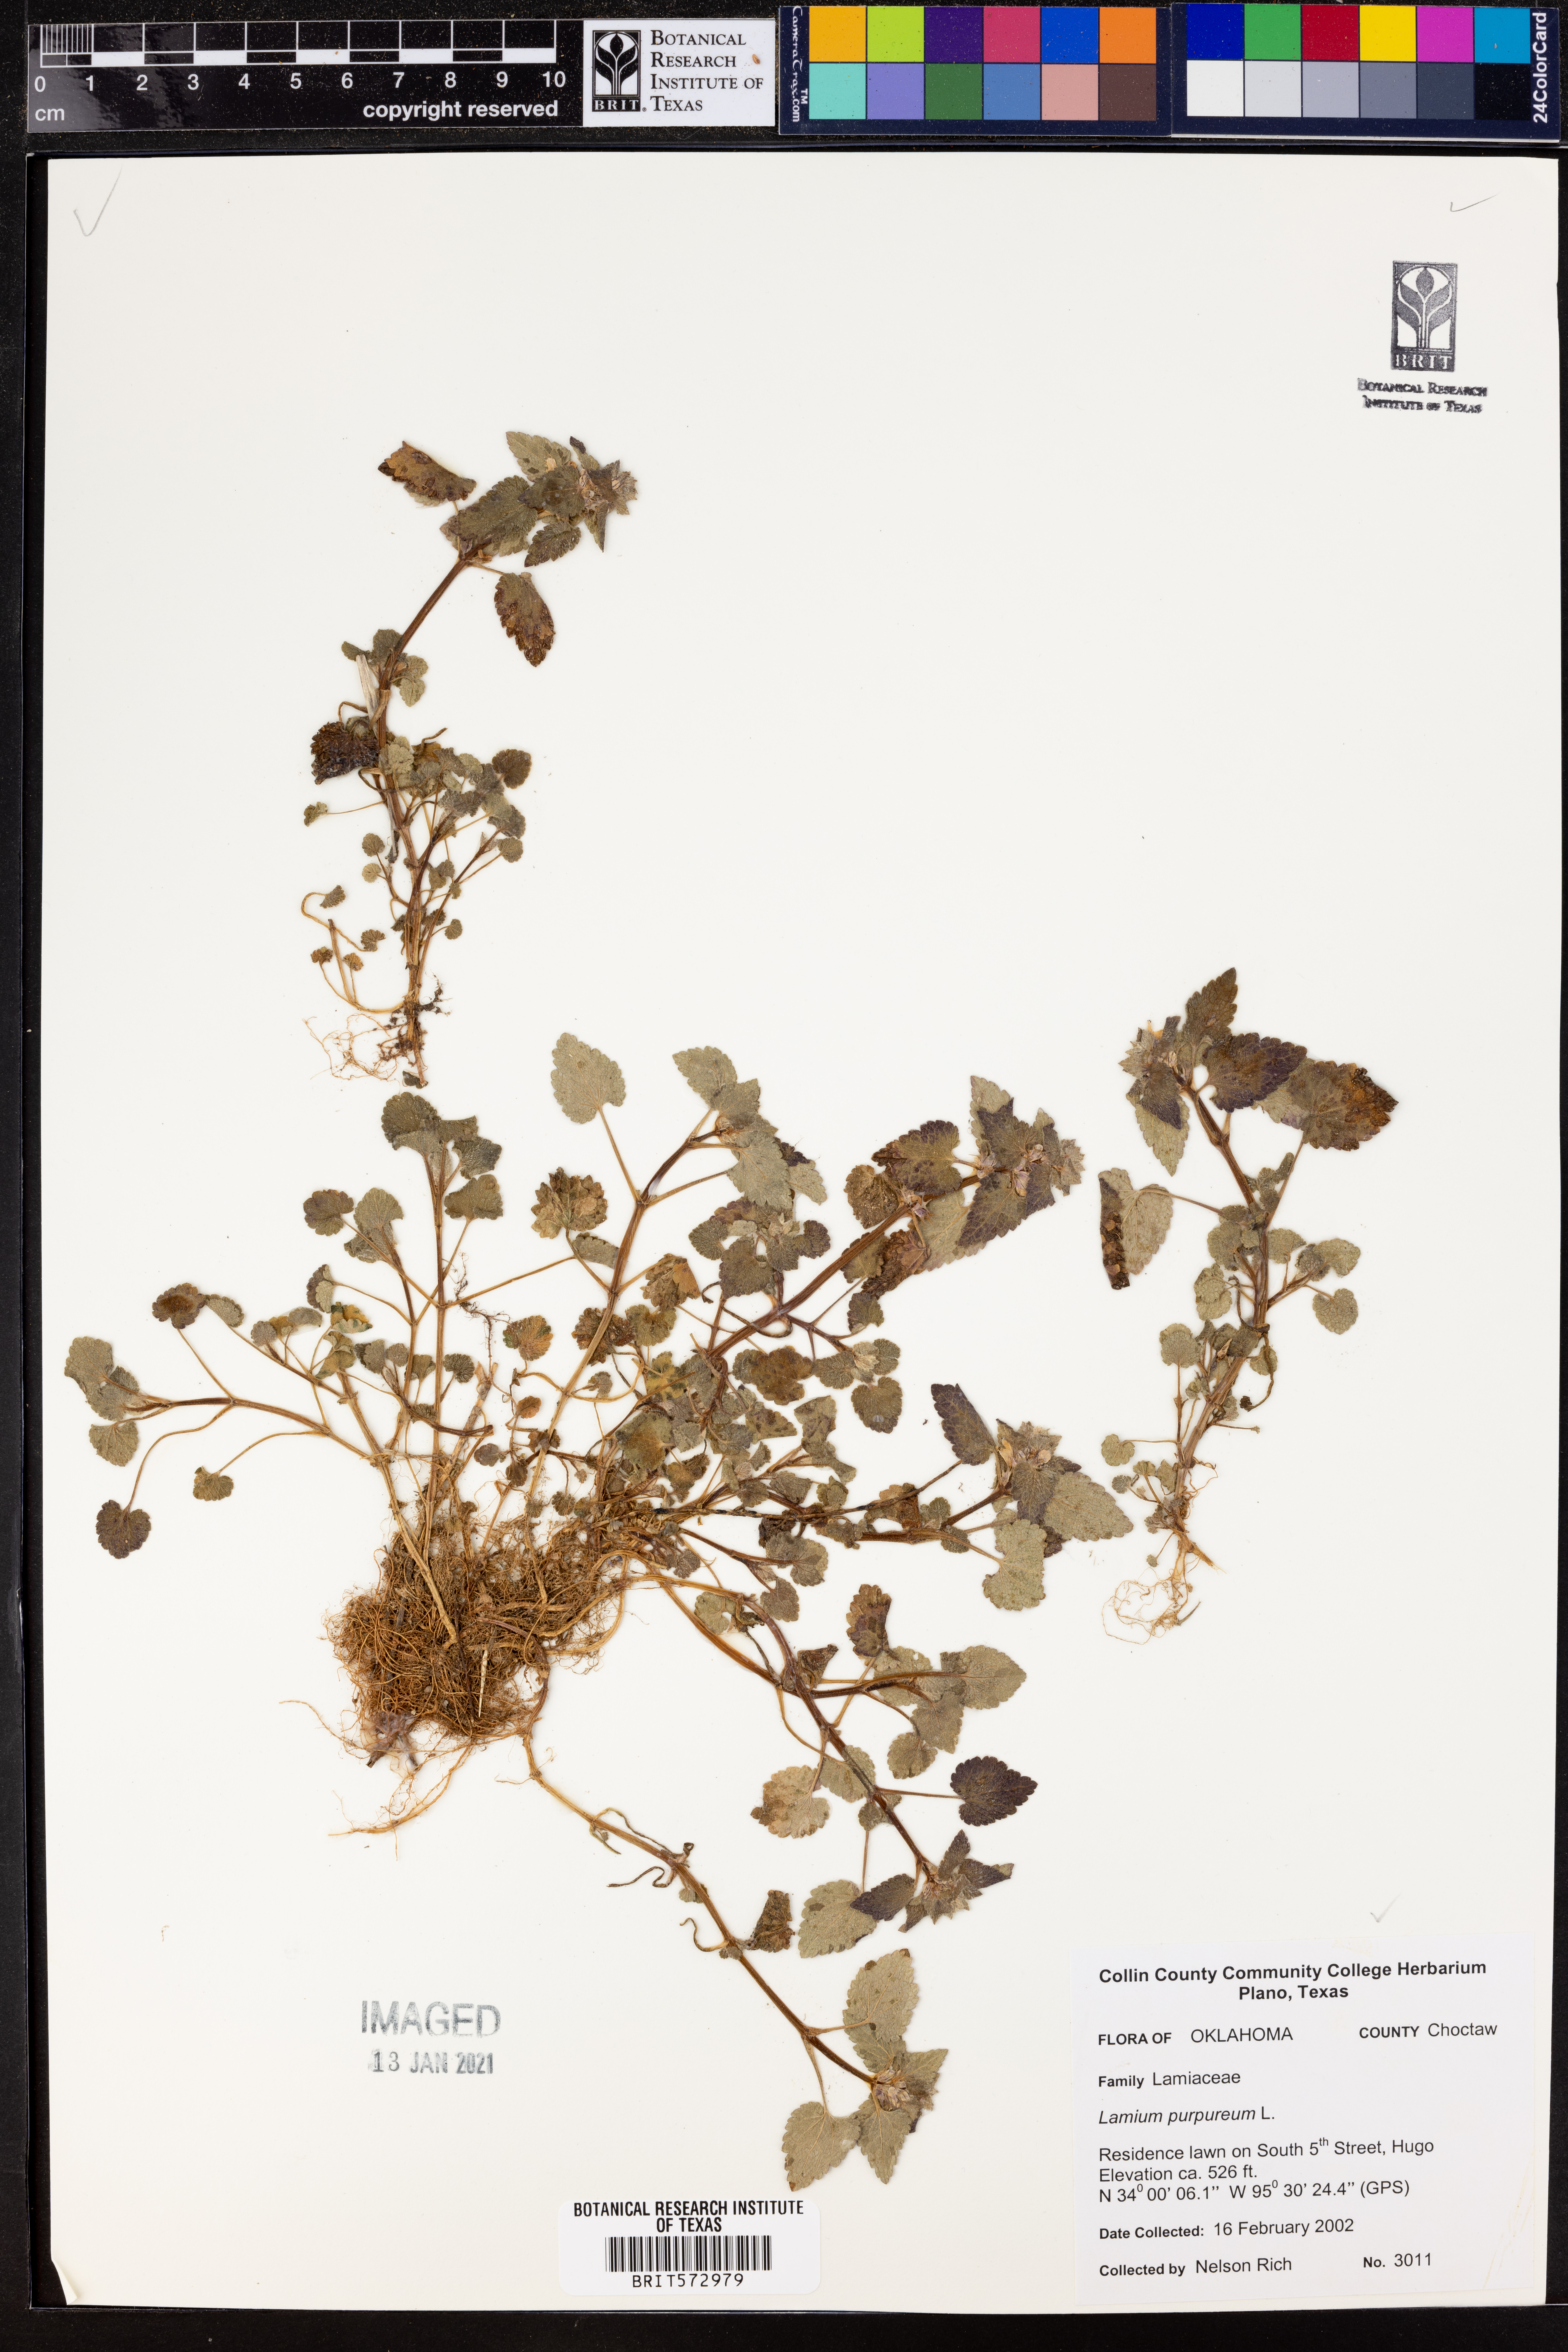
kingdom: Plantae
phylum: Tracheophyta
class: Magnoliopsida
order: Lamiales
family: Lamiaceae
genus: Lamium
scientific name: Lamium purpureum
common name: Red dead-nettle
